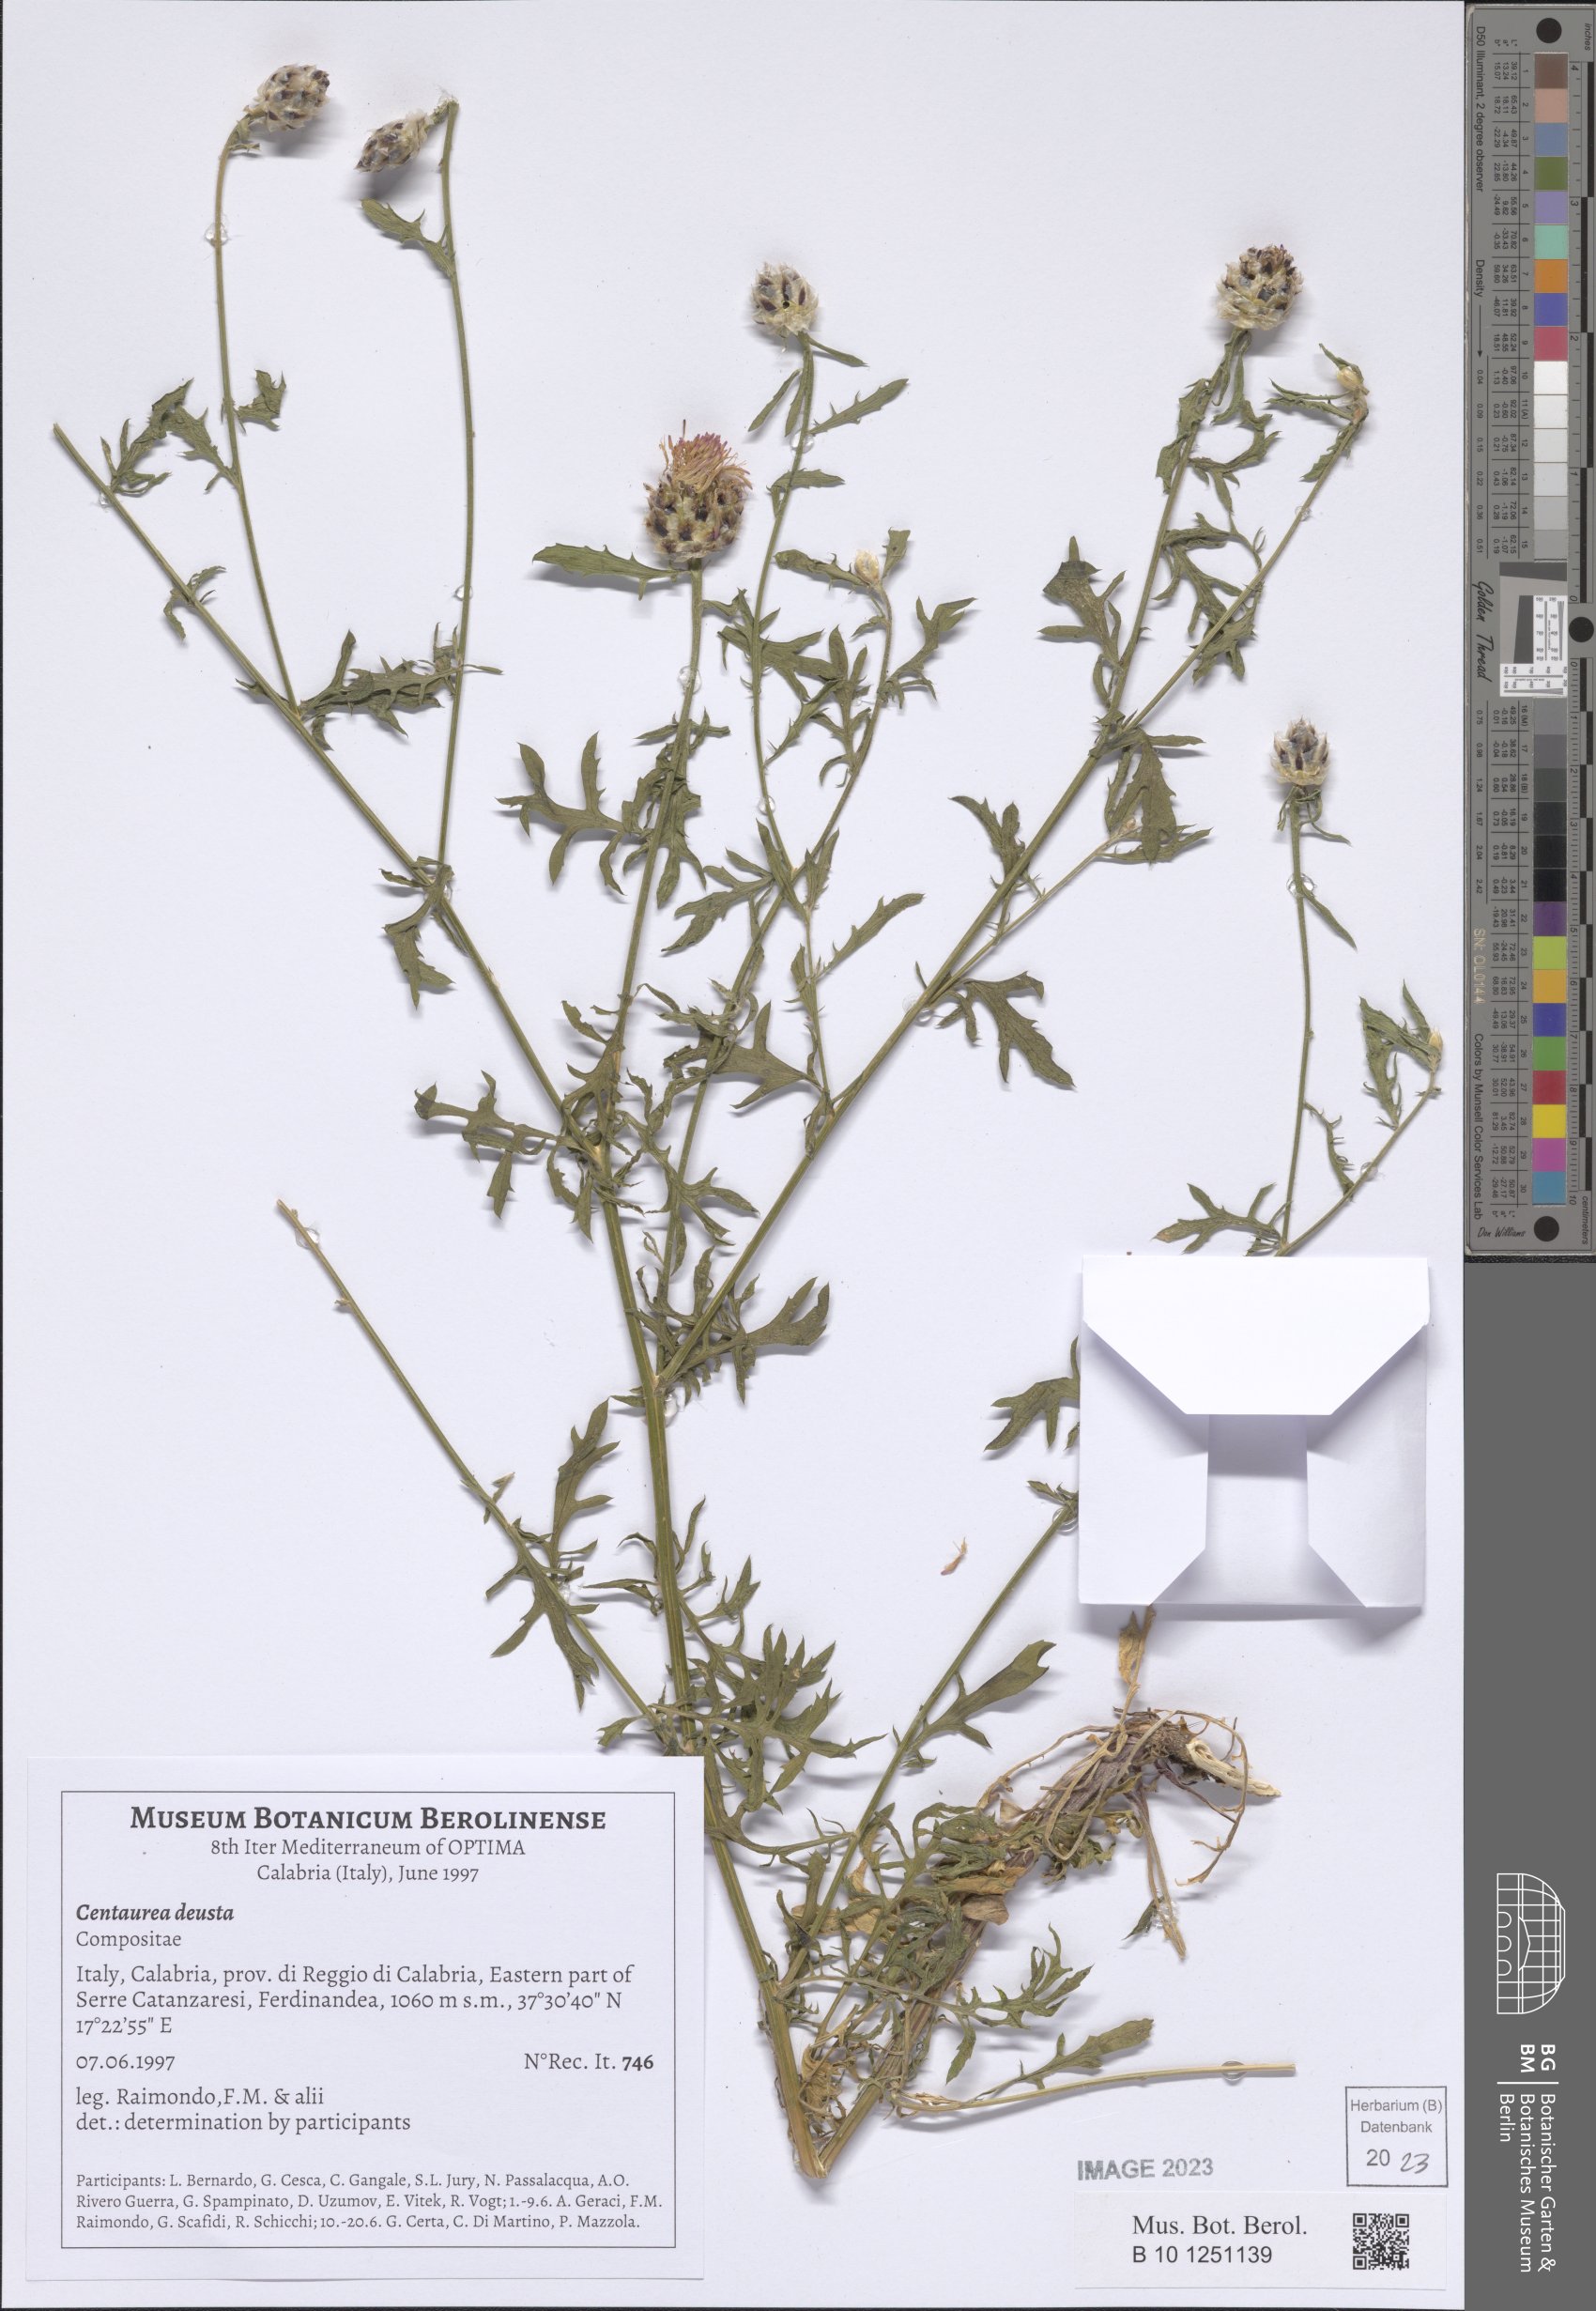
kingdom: Plantae
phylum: Tracheophyta
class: Magnoliopsida
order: Asterales
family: Asteraceae
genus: Centaurea
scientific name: Centaurea deusta
